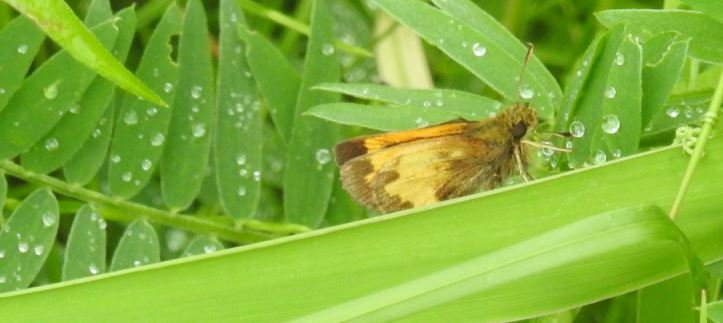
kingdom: Animalia
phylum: Arthropoda
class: Insecta
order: Lepidoptera
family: Hesperiidae
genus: Lon
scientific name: Lon hobomok
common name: Hobomok Skipper
